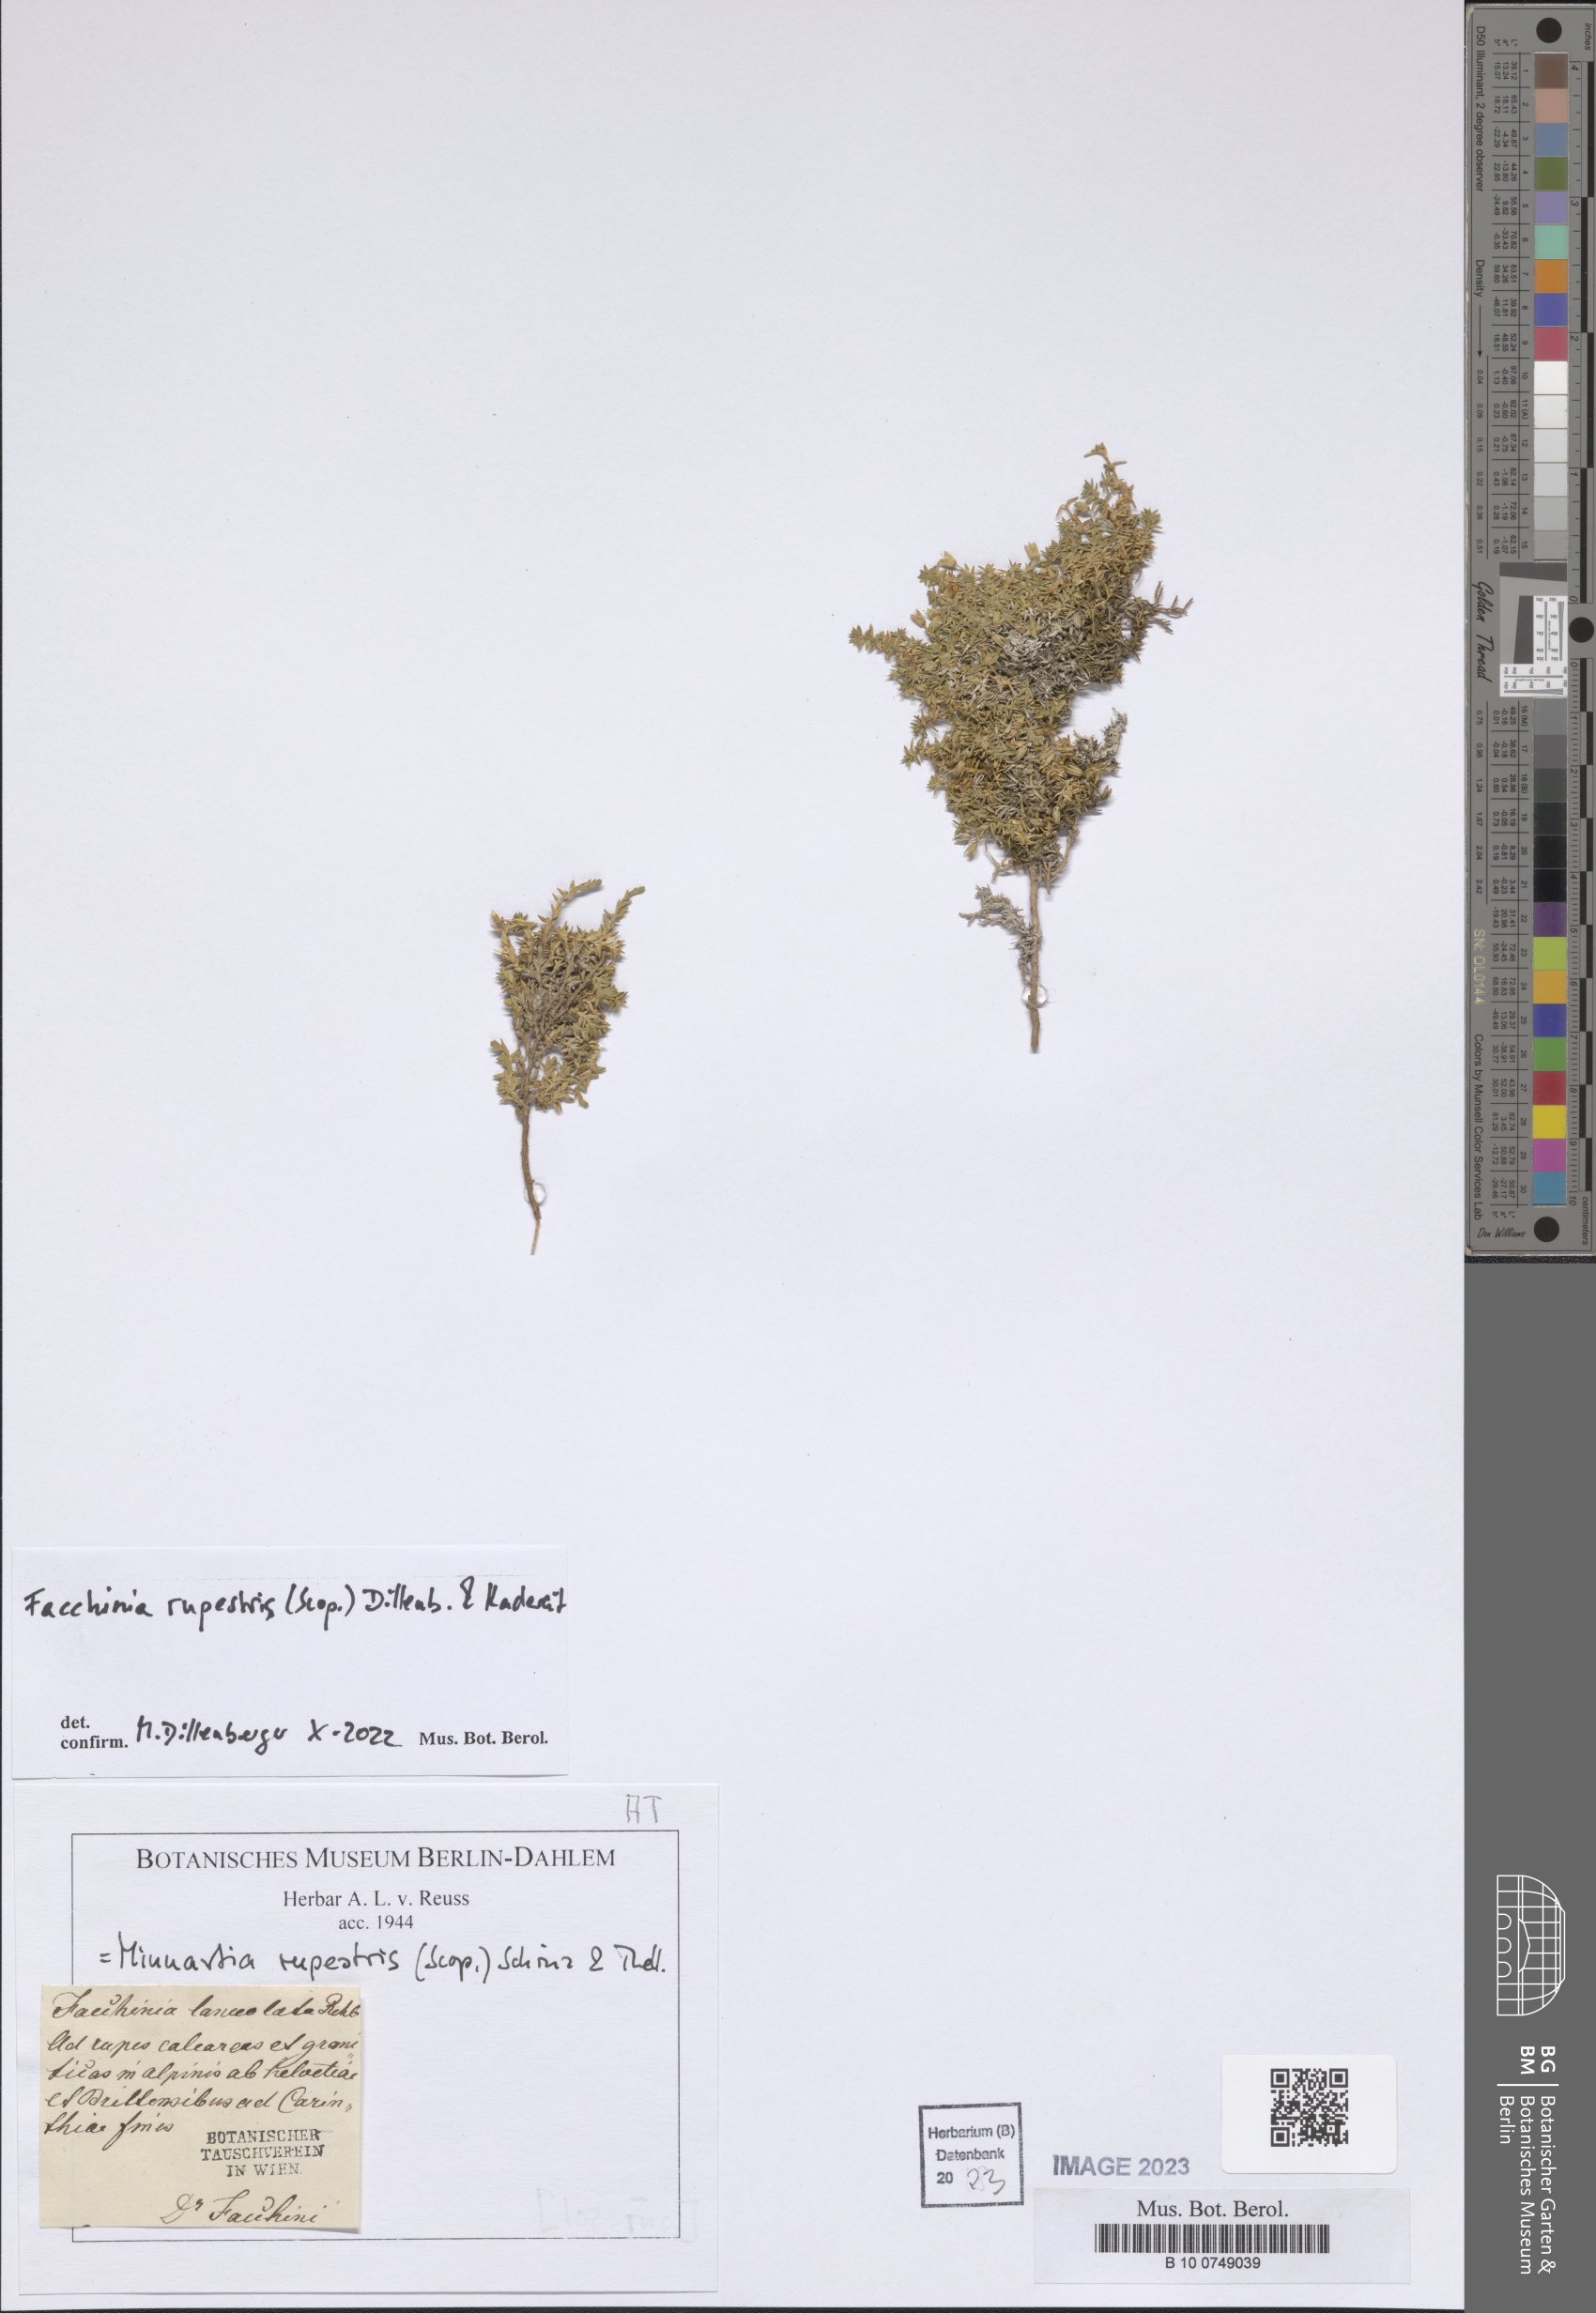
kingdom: Plantae
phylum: Tracheophyta
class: Magnoliopsida
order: Caryophyllales
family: Caryophyllaceae
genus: Facchinia
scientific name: Facchinia rupestris
